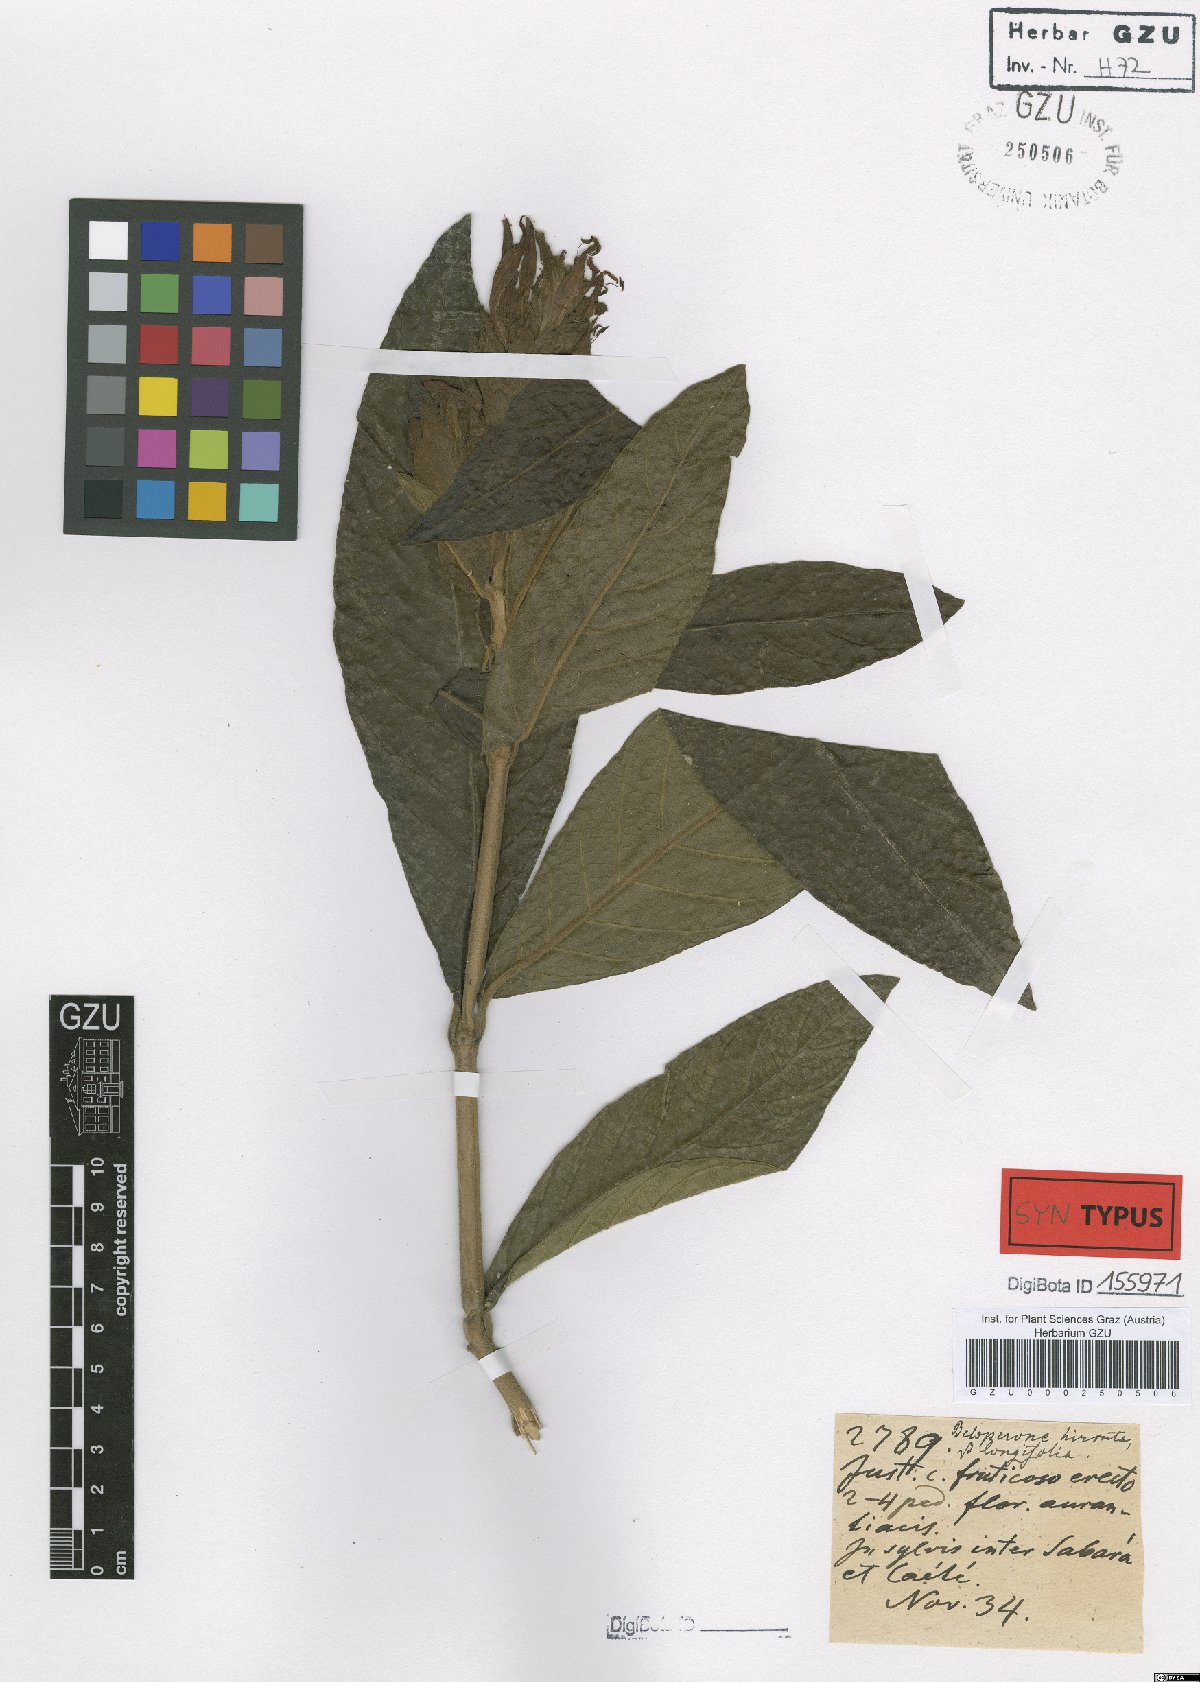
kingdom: Plantae
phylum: Tracheophyta
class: Magnoliopsida
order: Lamiales
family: Acanthaceae
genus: Justicia
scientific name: Justicia pohliana
